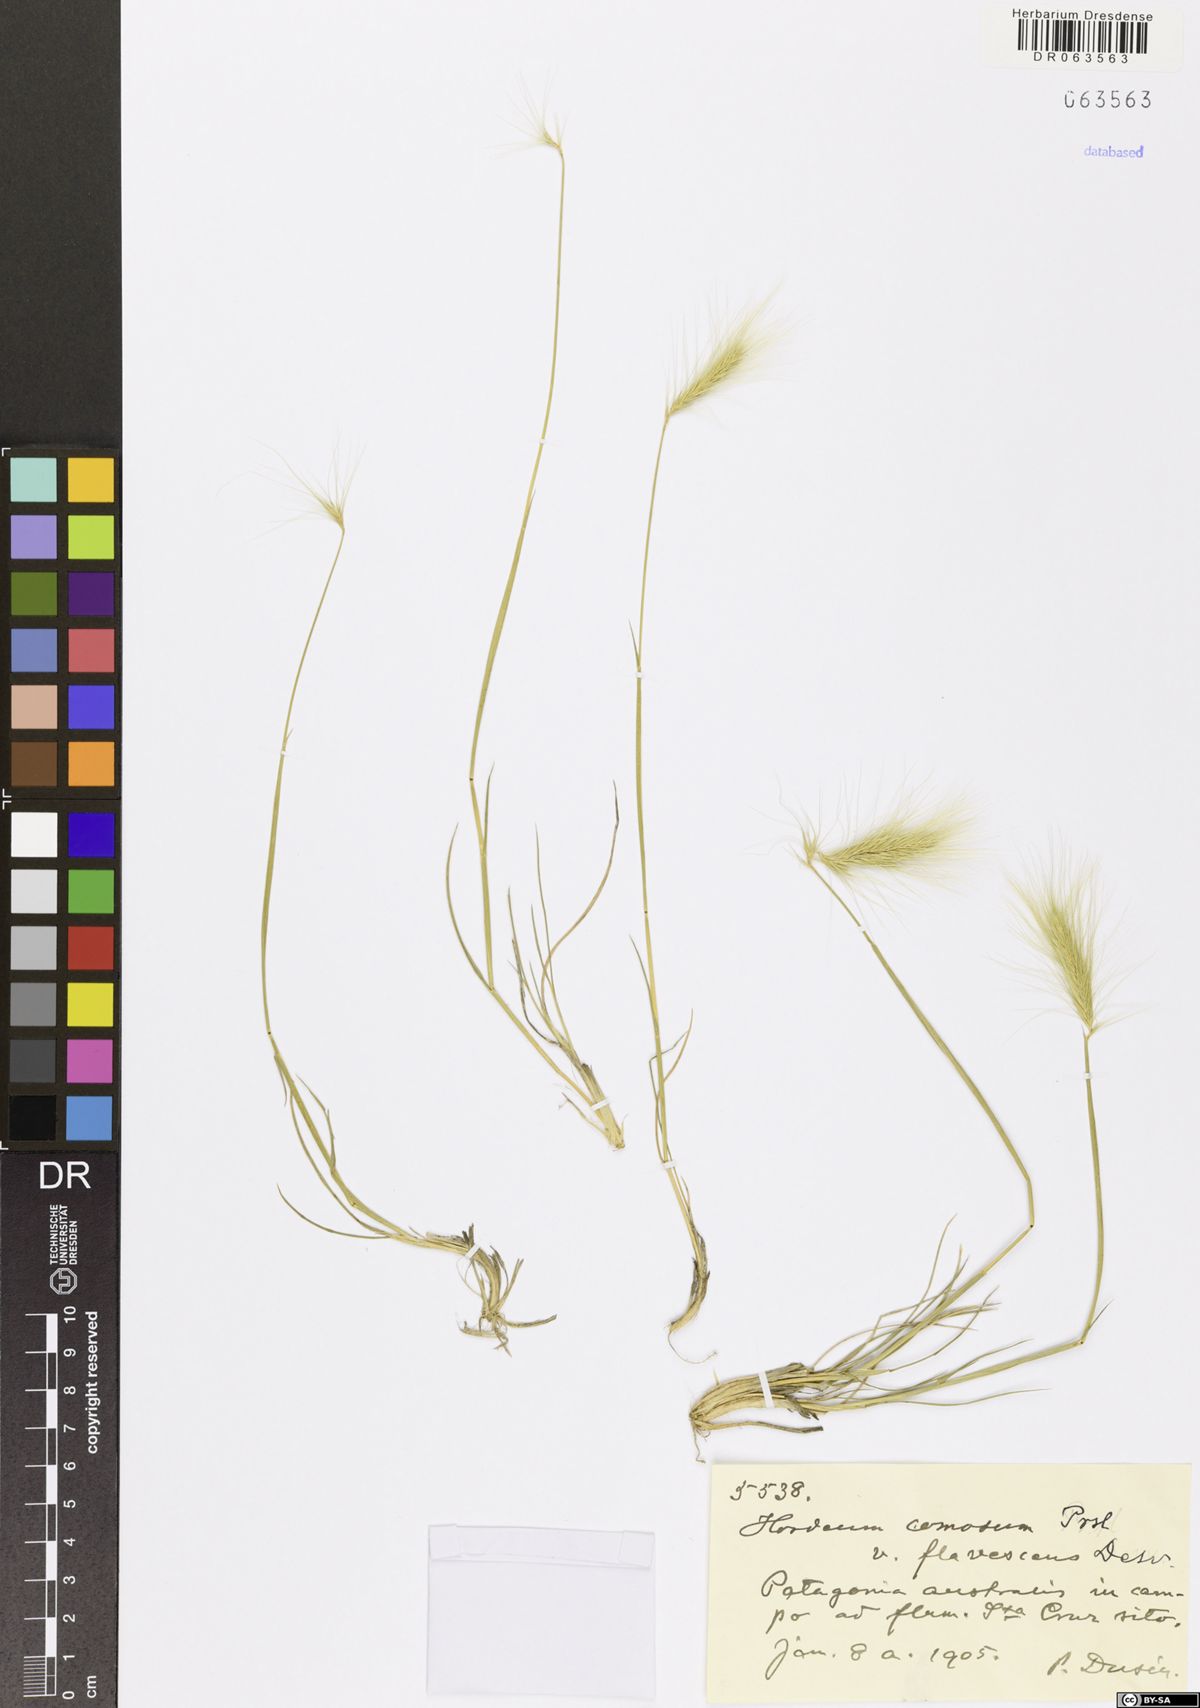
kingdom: Plantae
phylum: Tracheophyta
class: Liliopsida
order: Poales
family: Poaceae
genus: Hordeum
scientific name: Hordeum comosum
